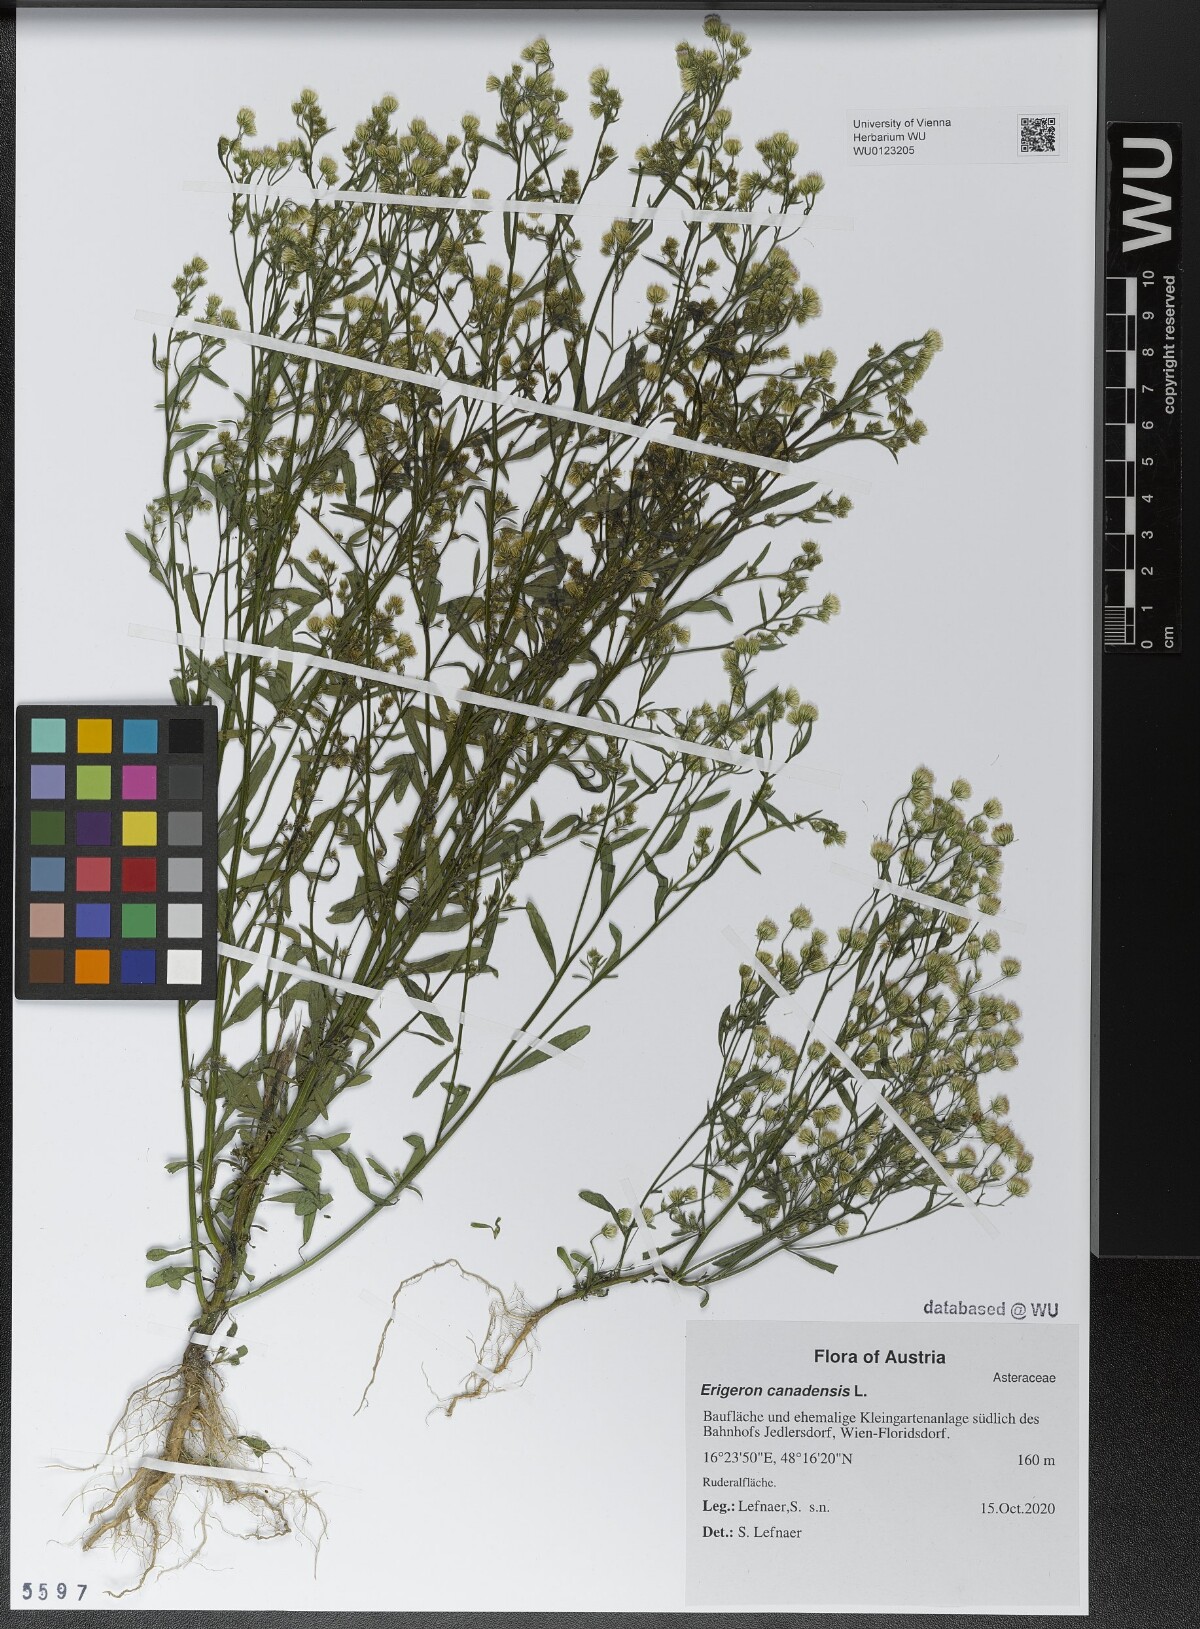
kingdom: Plantae
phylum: Tracheophyta
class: Magnoliopsida
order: Asterales
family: Asteraceae
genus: Erigeron
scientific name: Erigeron canadensis
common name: Canadian fleabane
